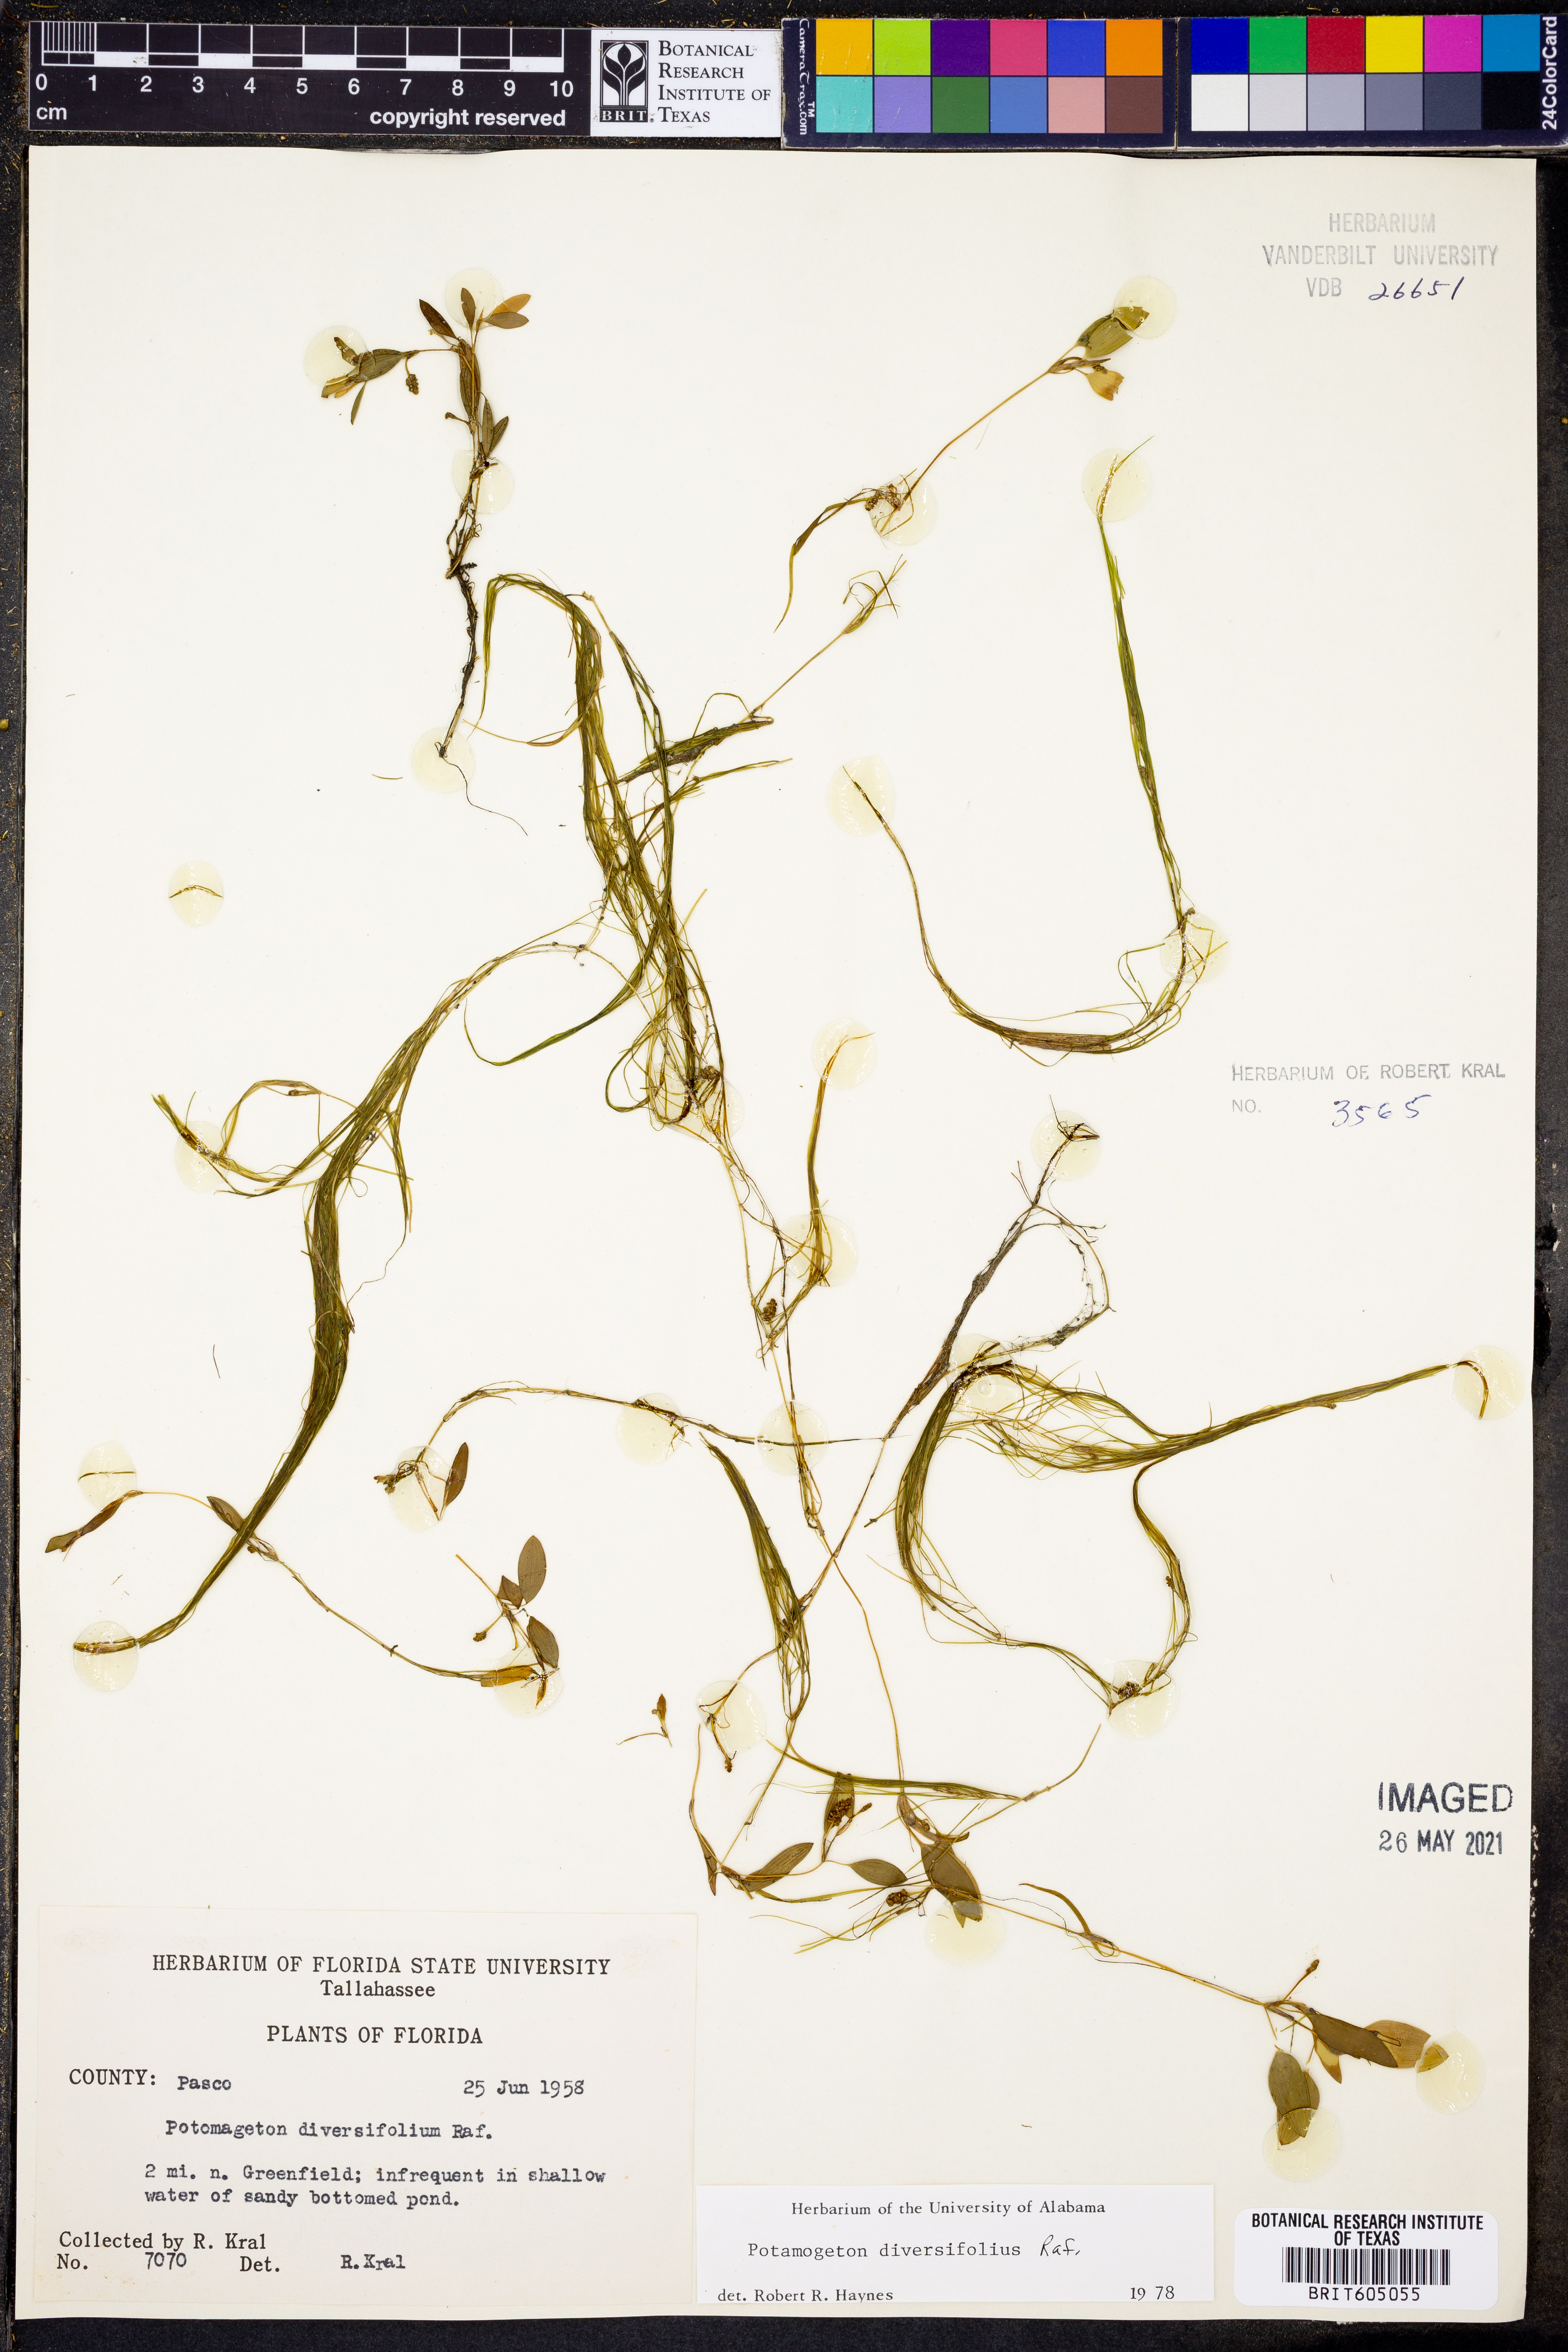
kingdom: Plantae
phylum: Tracheophyta
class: Liliopsida
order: Alismatales
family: Potamogetonaceae
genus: Potamogeton
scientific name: Potamogeton diversifolius
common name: Water-thread pondweed
